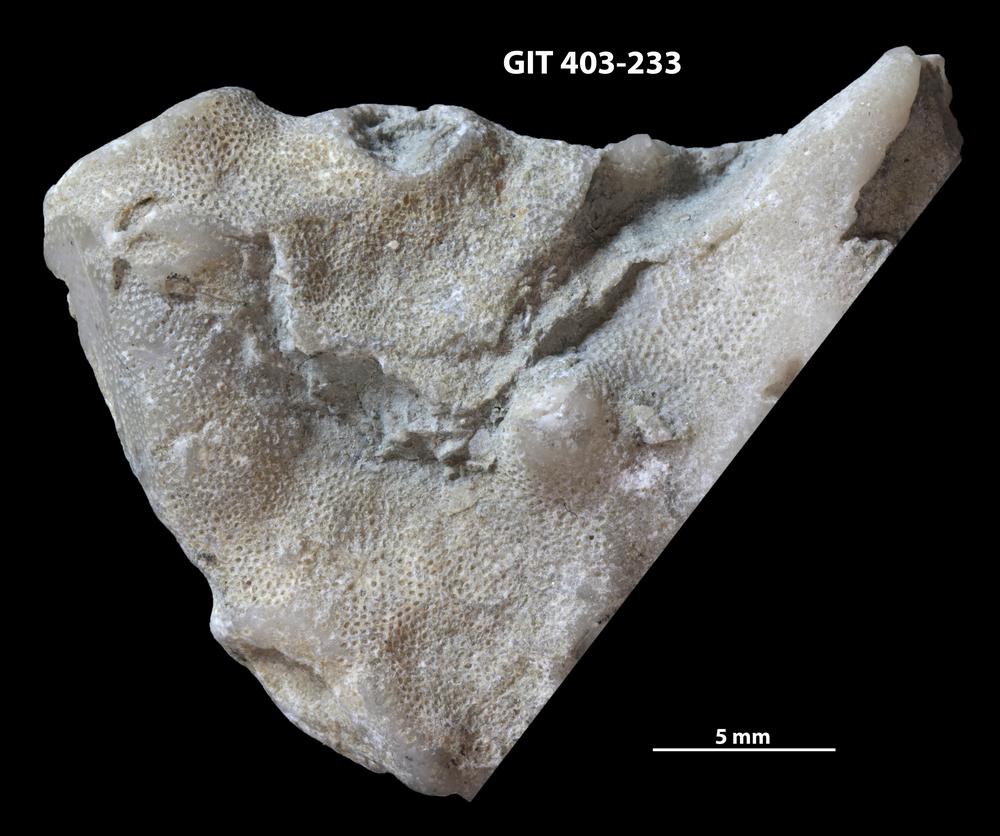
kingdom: Animalia
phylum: Bryozoa
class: Stenolaemata
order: Cystoporida
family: Fistuliporidae
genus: Fistulipora
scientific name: Fistulipora przhidolensis
